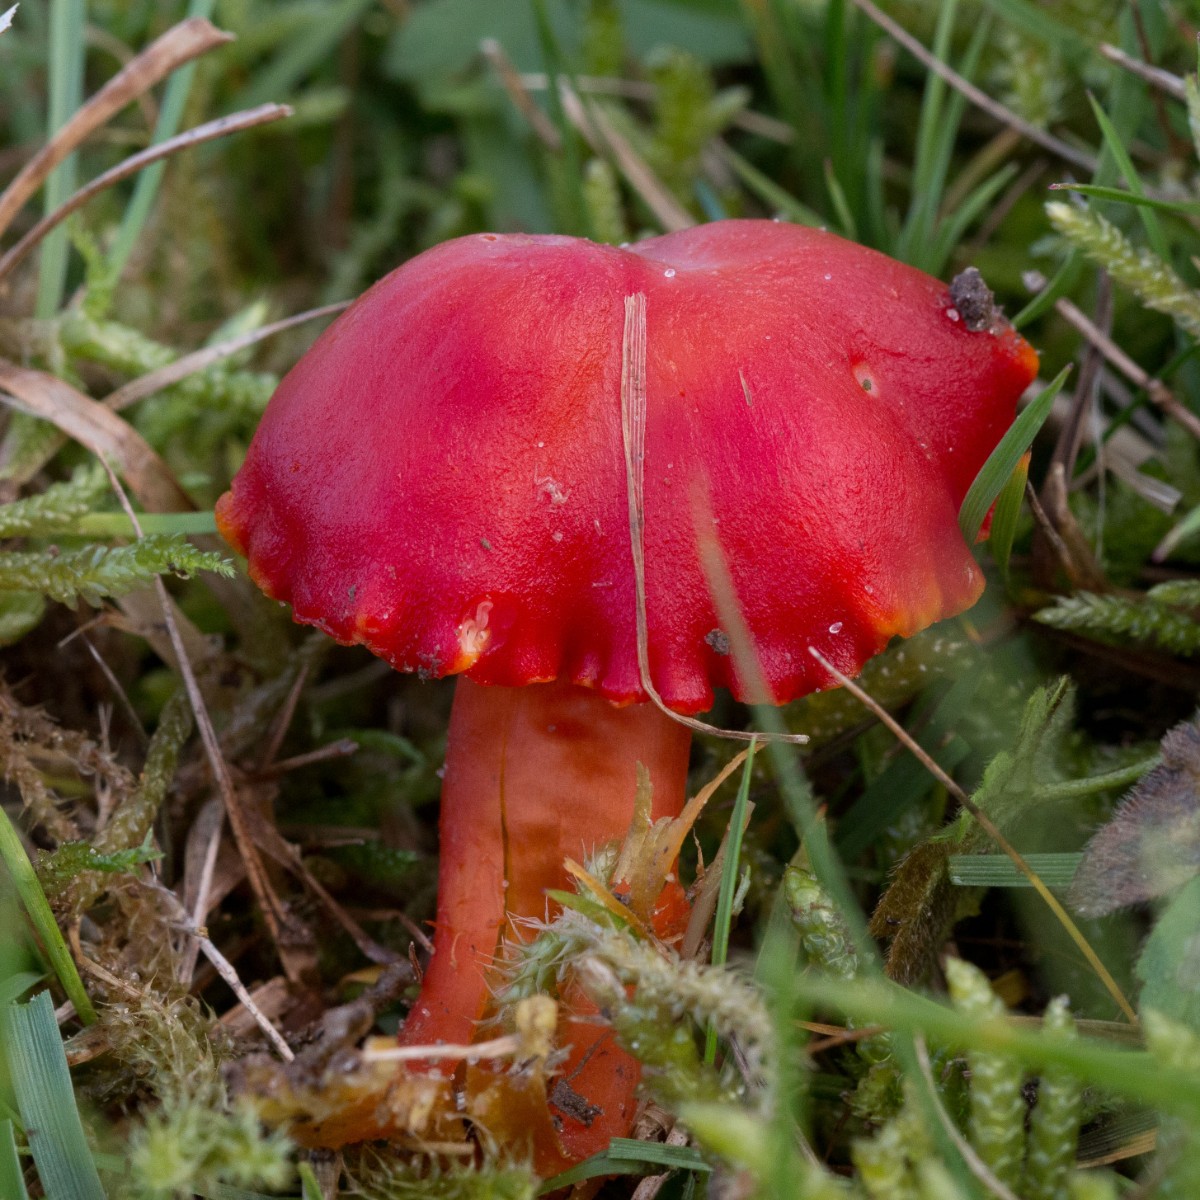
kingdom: Fungi
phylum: Basidiomycota
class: Agaricomycetes
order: Agaricales
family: Hygrophoraceae
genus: Hygrocybe
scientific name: Hygrocybe coccinea
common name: cinnober-vokshat
